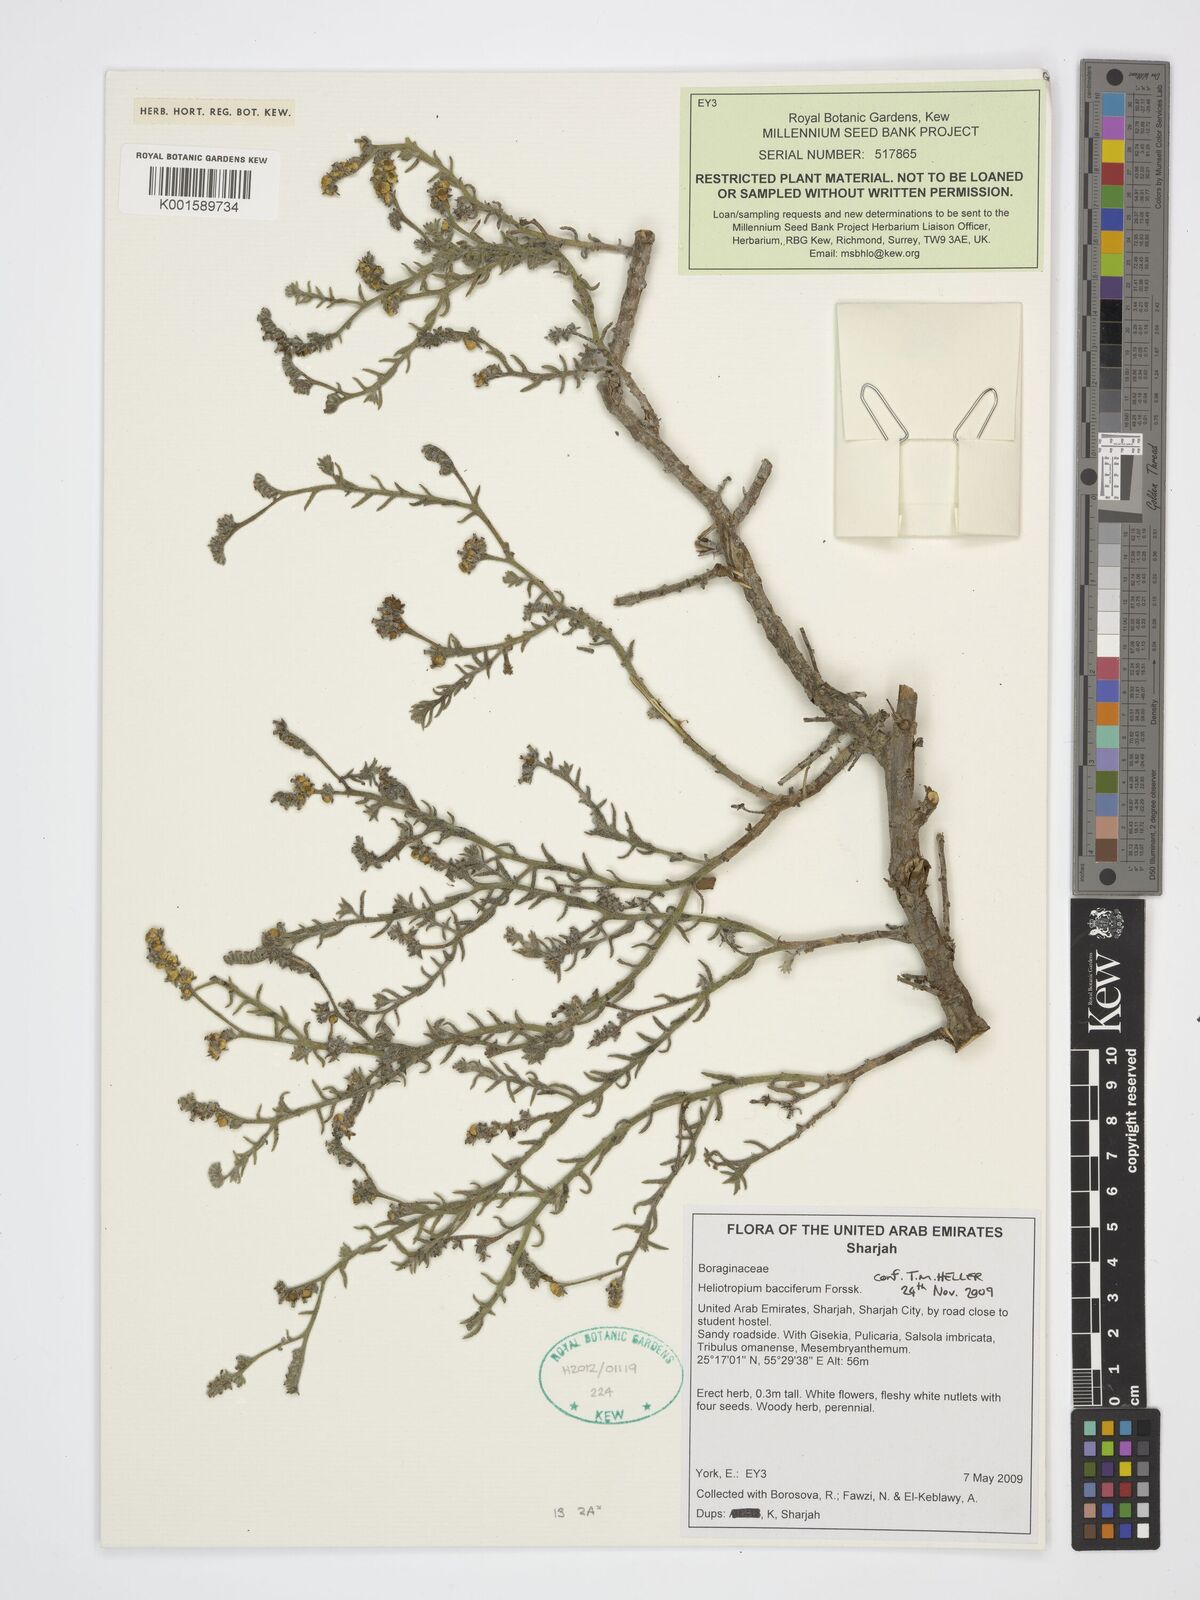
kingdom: Plantae
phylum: Tracheophyta
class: Magnoliopsida
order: Boraginales
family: Heliotropiaceae
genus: Heliotropium
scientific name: Heliotropium bacciferum
